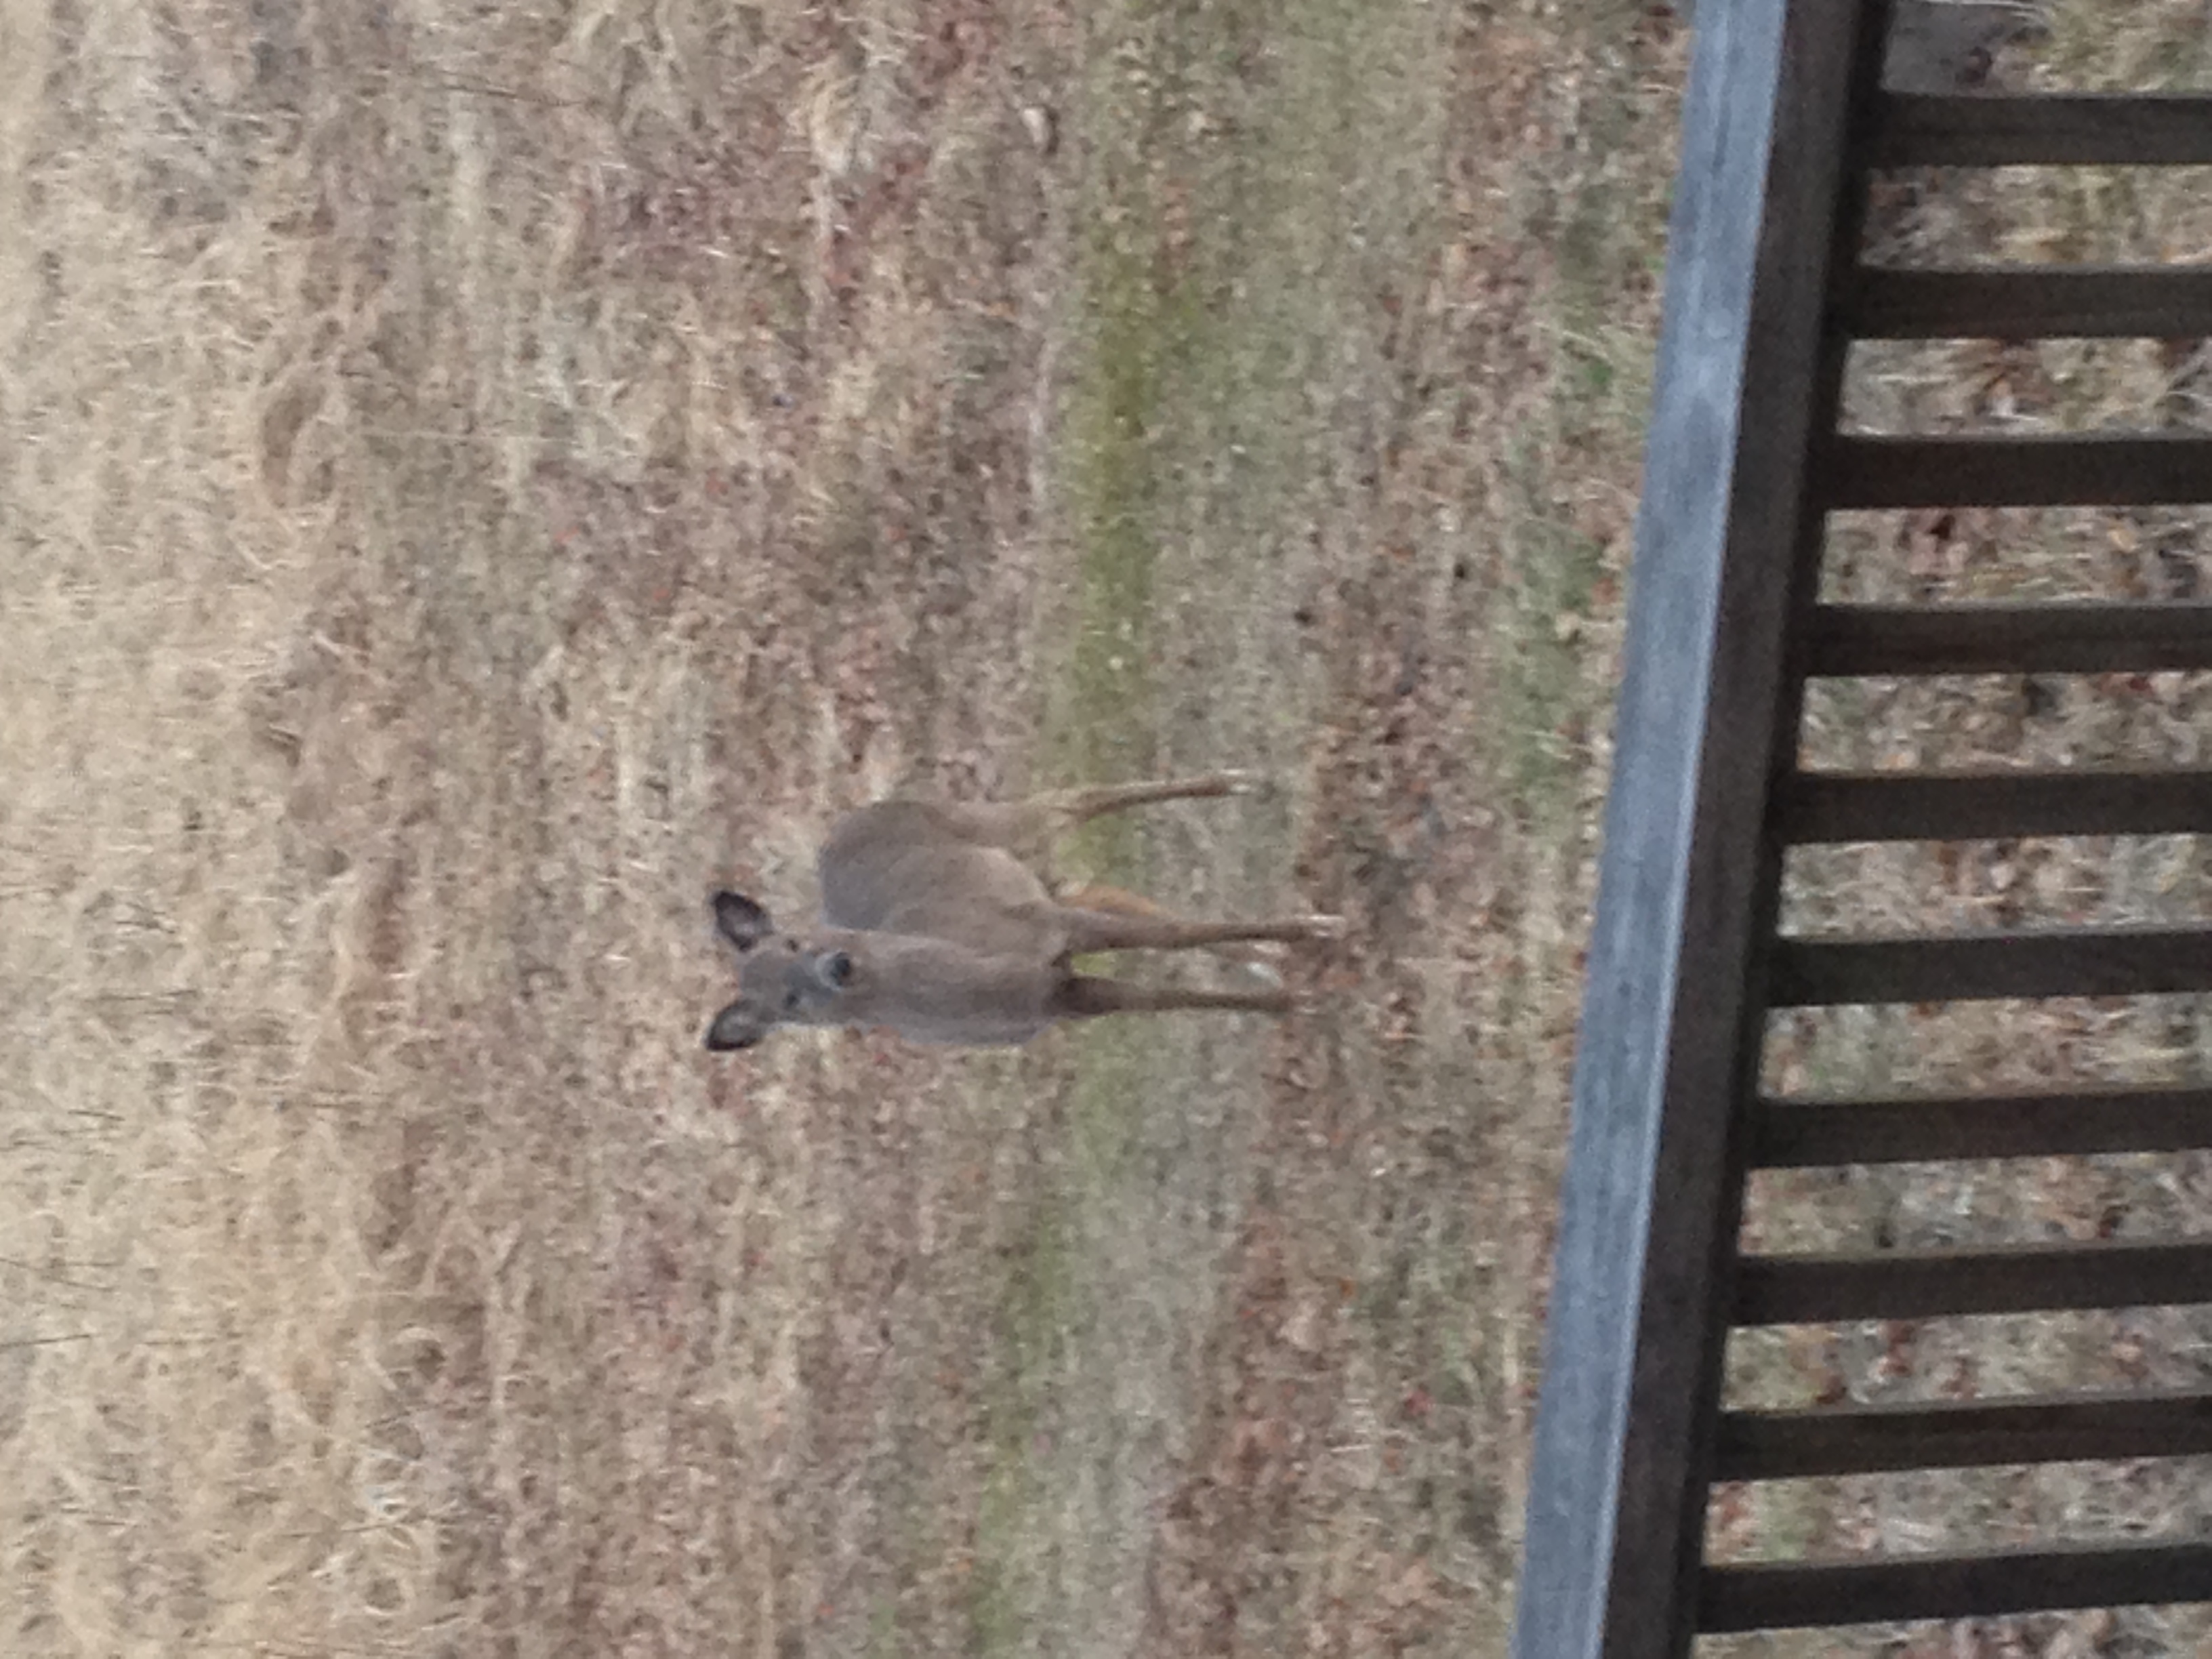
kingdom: Animalia
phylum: Chordata
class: Mammalia
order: Artiodactyla
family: Cervidae
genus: Odocoileus
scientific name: Odocoileus virginianus
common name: White-tailed deer
